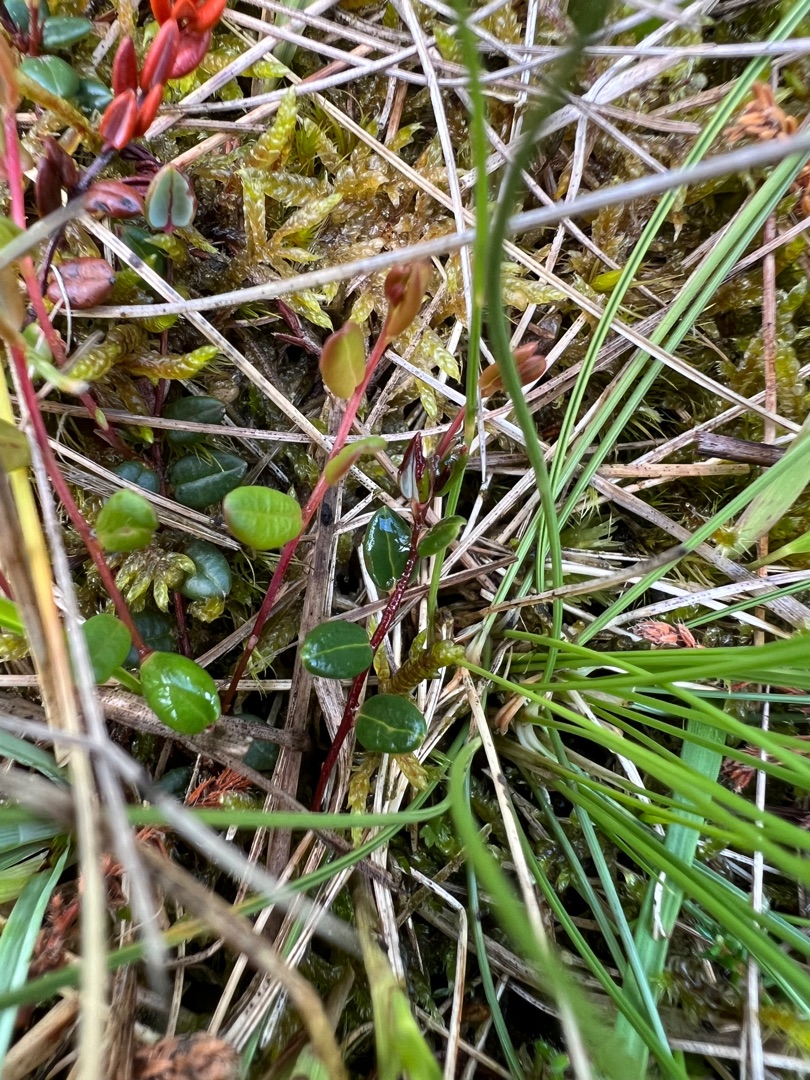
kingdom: Plantae
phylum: Tracheophyta
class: Magnoliopsida
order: Ericales
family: Ericaceae
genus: Vaccinium
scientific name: Vaccinium oxycoccos
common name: Tranebær
